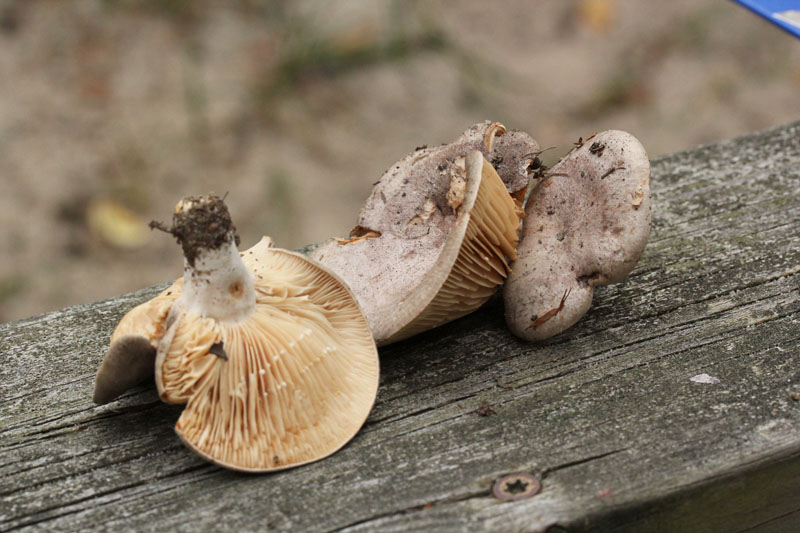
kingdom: Fungi
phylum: Basidiomycota
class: Agaricomycetes
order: Russulales
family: Russulaceae
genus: Lactarius
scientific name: Lactarius circellatus
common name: avnbøg-mælkehat
